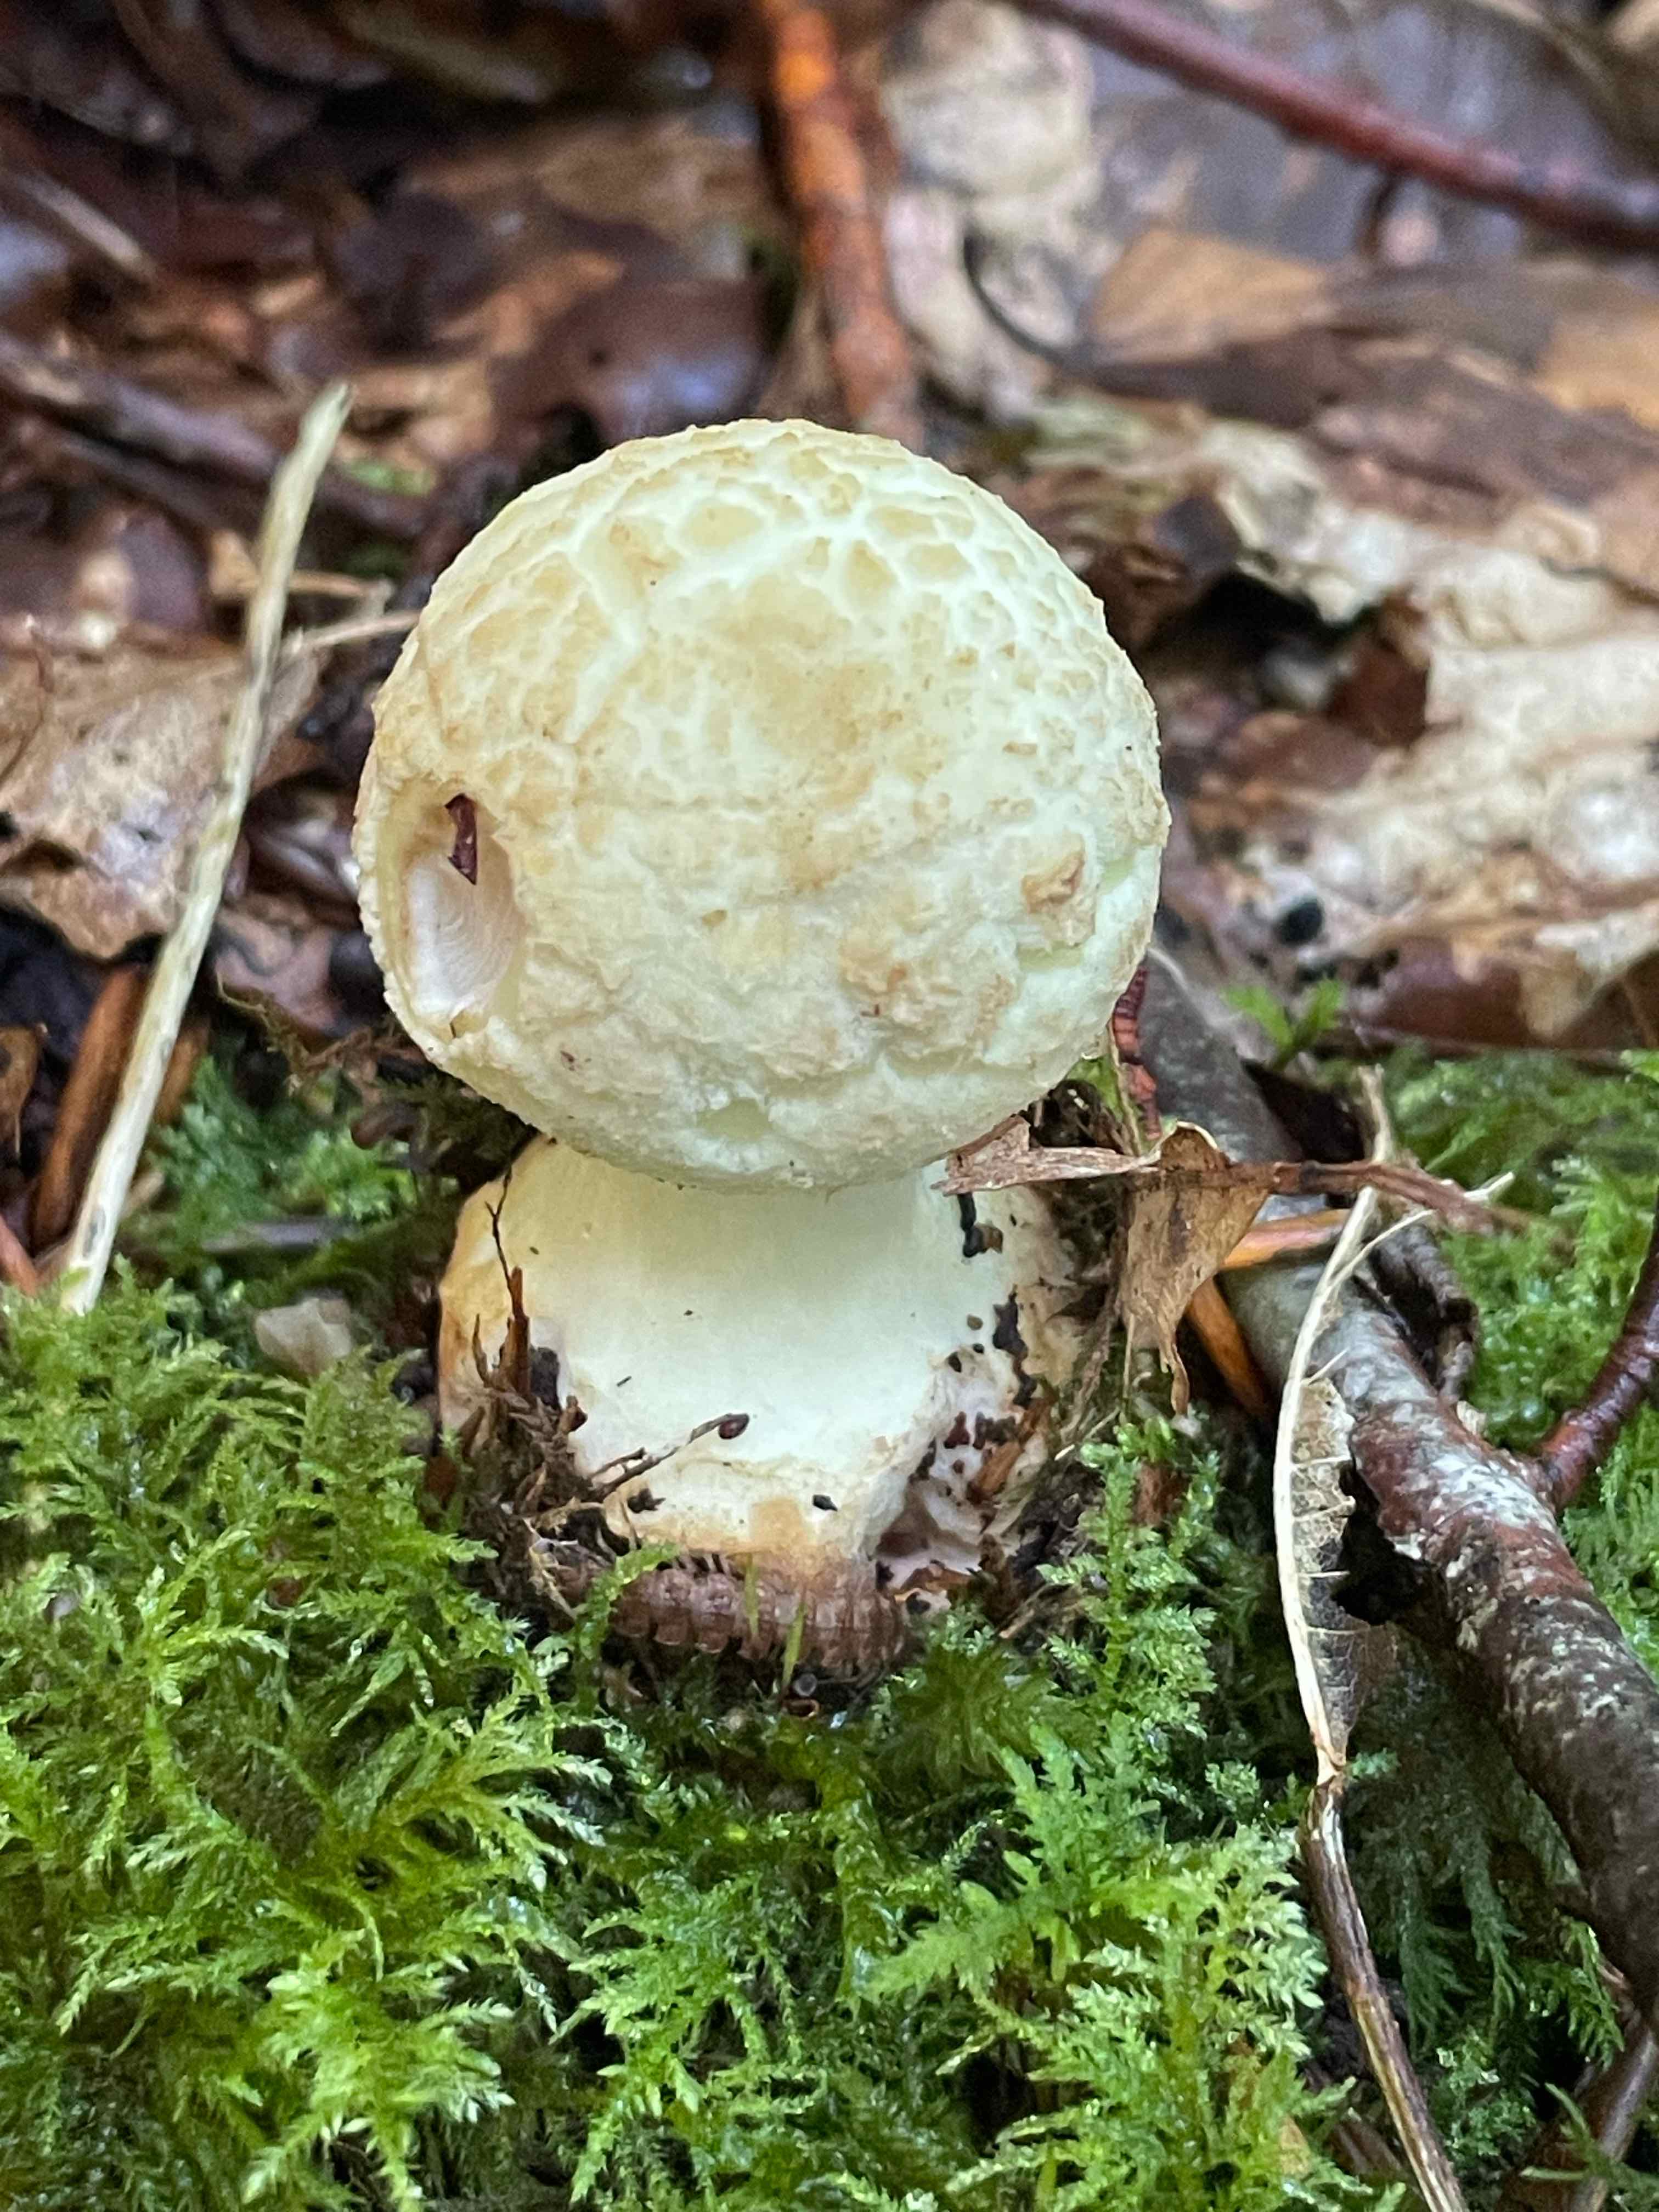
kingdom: Fungi
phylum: Basidiomycota
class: Agaricomycetes
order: Agaricales
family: Amanitaceae
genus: Amanita
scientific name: Amanita citrina
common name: kugleknoldet fluesvamp
